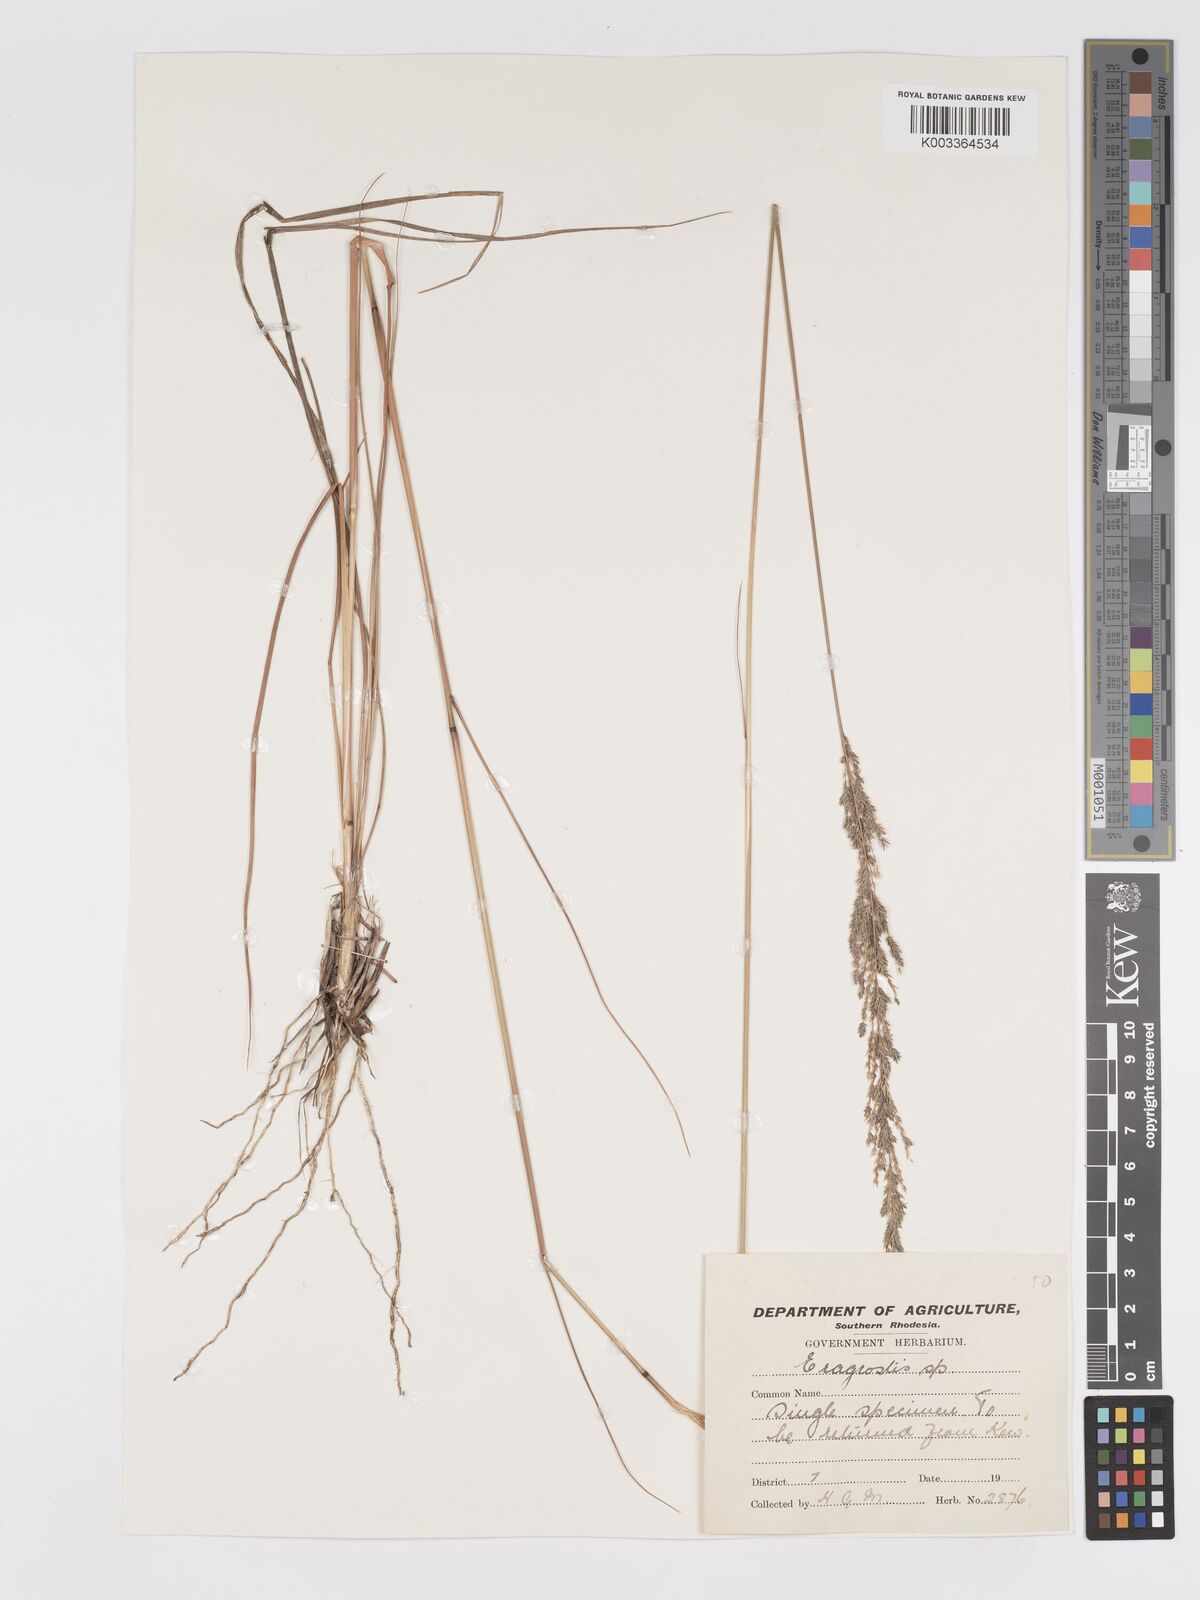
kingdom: Plantae
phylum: Tracheophyta
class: Liliopsida
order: Poales
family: Poaceae
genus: Eragrostis
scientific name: Eragrostis brainii
